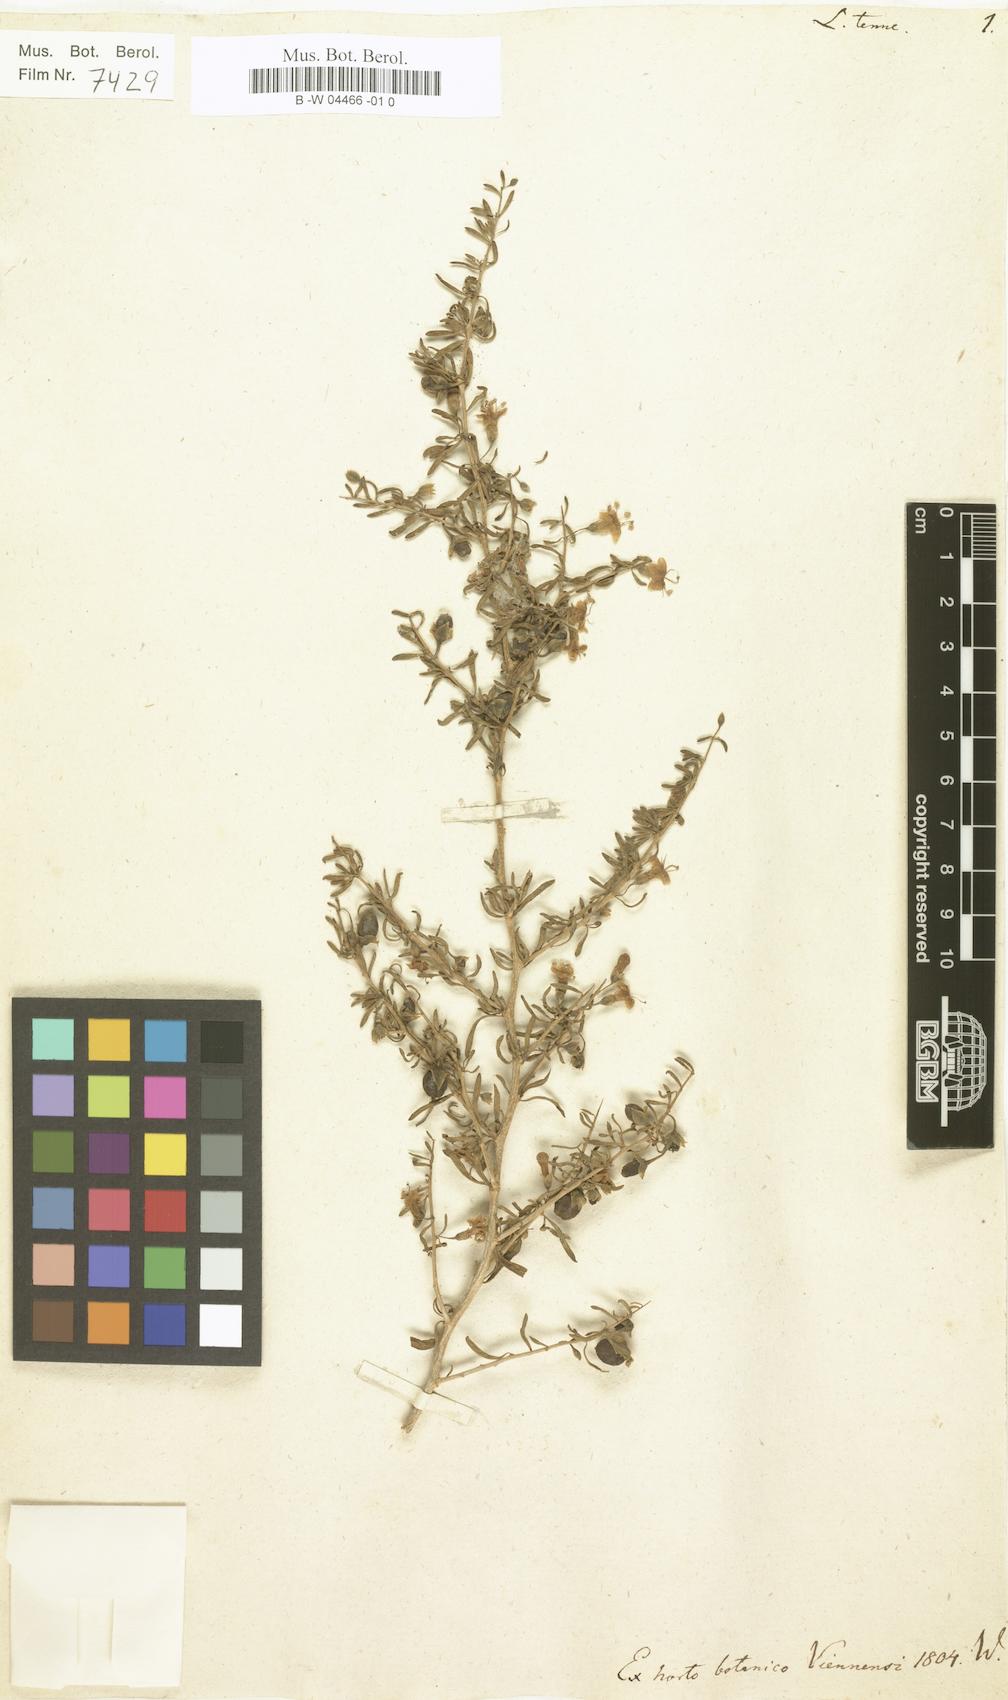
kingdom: Plantae
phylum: Tracheophyta
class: Magnoliopsida
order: Solanales
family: Solanaceae
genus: Lycium
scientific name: Lycium horridum
